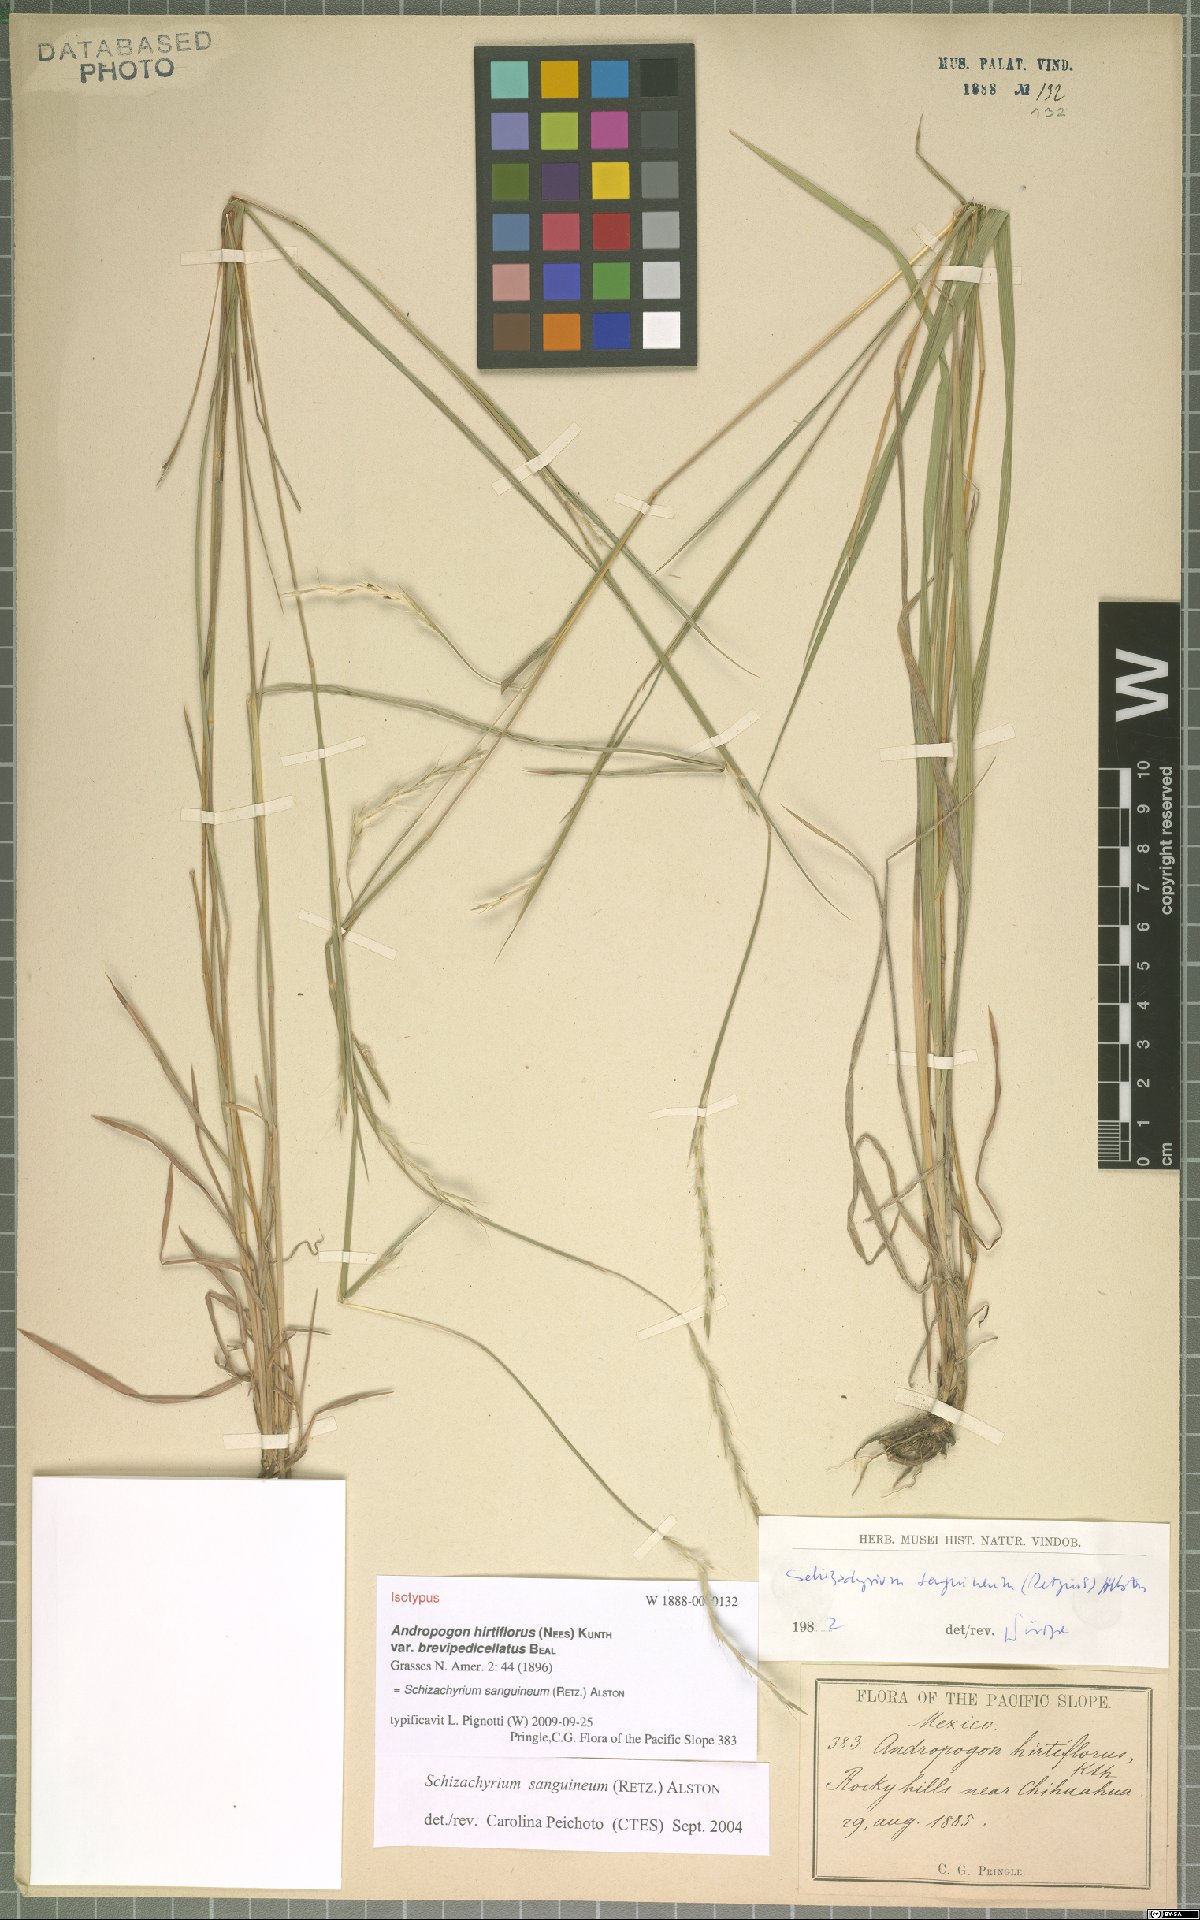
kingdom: Plantae
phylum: Tracheophyta
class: Liliopsida
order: Poales
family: Poaceae
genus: Schizachyrium
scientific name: Schizachyrium sanguineum
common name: Crimson bluestem
